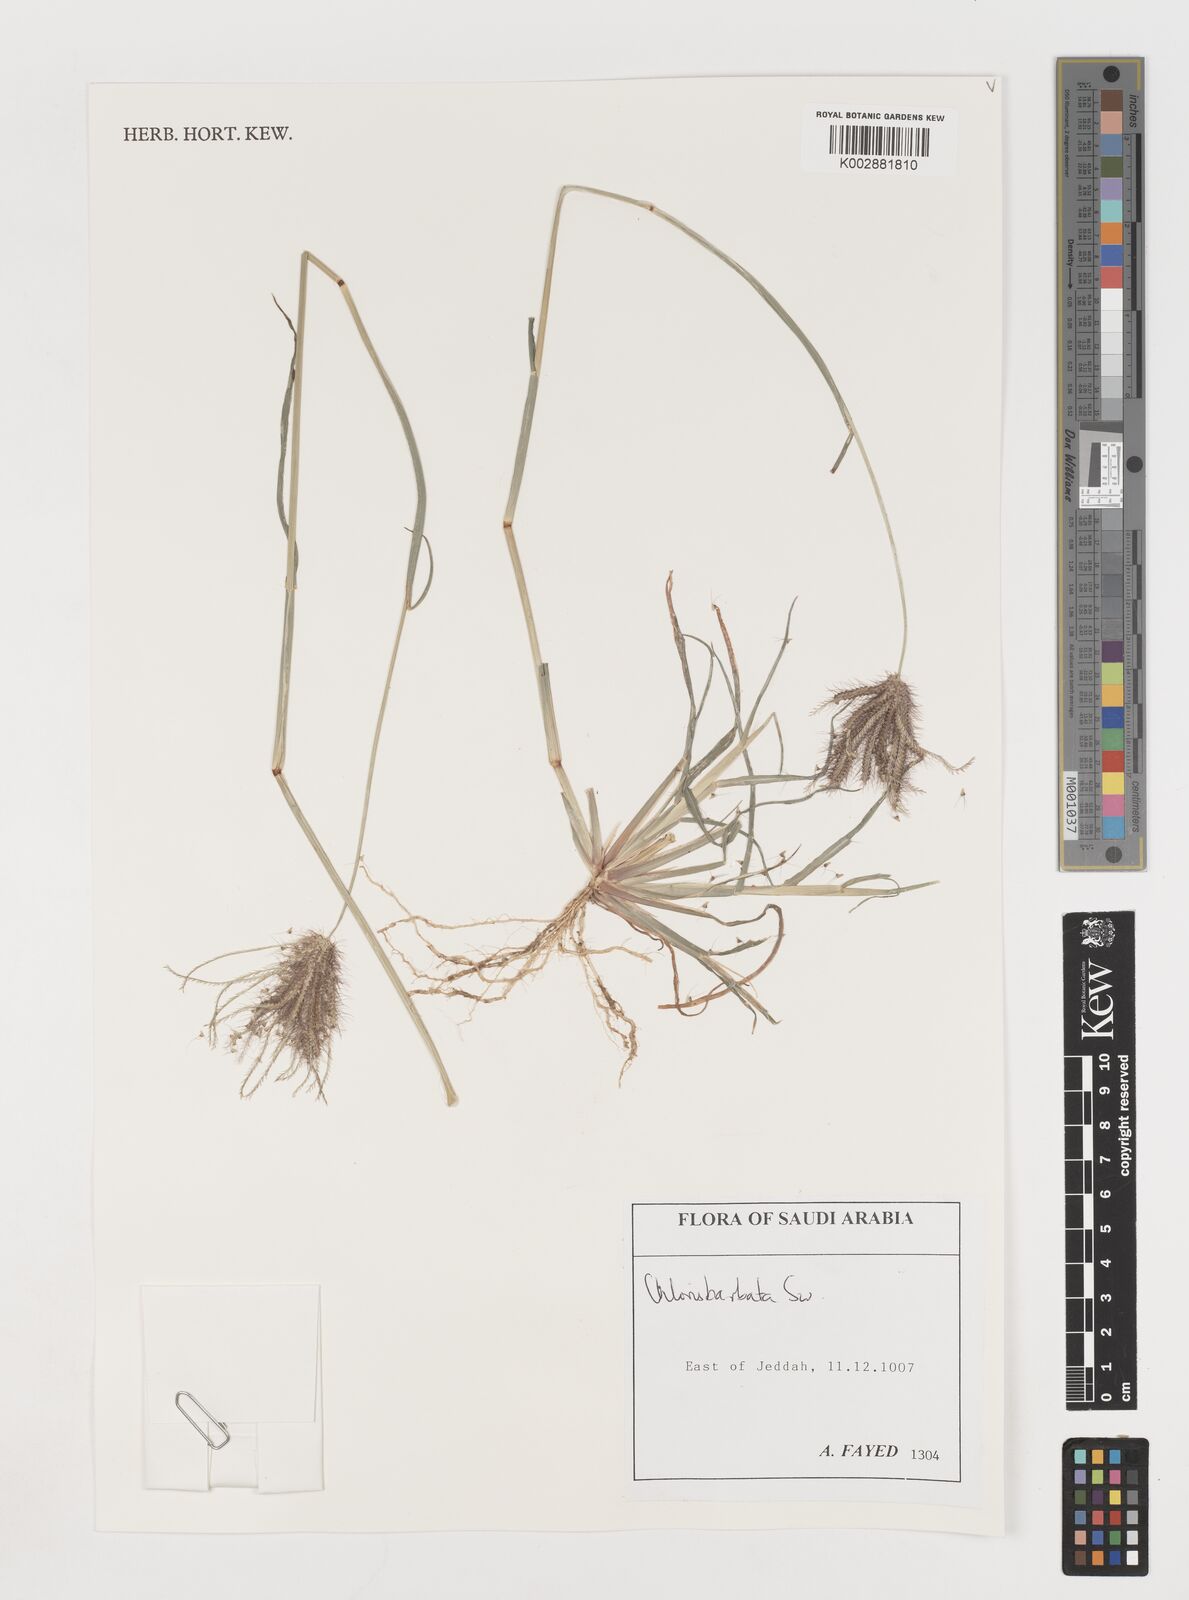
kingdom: Plantae
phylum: Tracheophyta
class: Liliopsida
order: Poales
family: Poaceae
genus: Chloris
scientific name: Chloris barbata
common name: Swollen fingergrass
